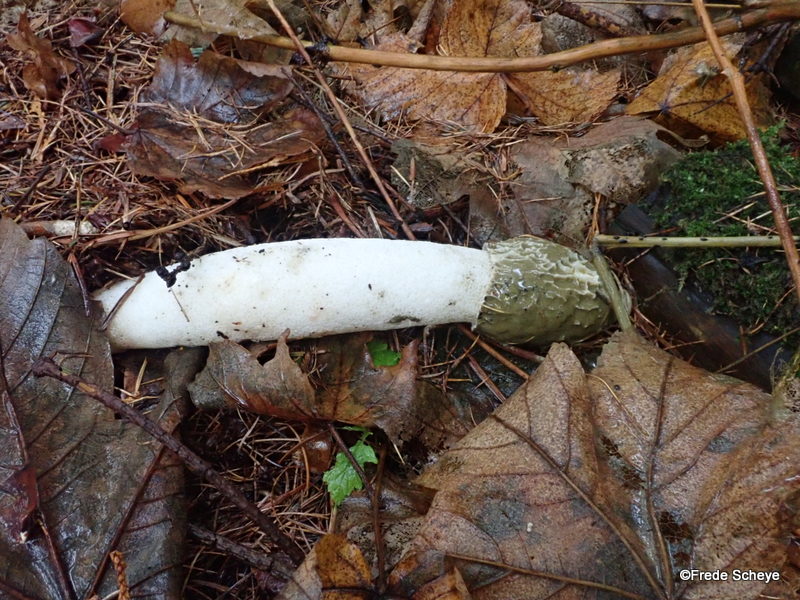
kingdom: Fungi
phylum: Basidiomycota
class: Agaricomycetes
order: Phallales
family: Phallaceae
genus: Phallus
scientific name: Phallus impudicus
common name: almindelig stinksvamp
